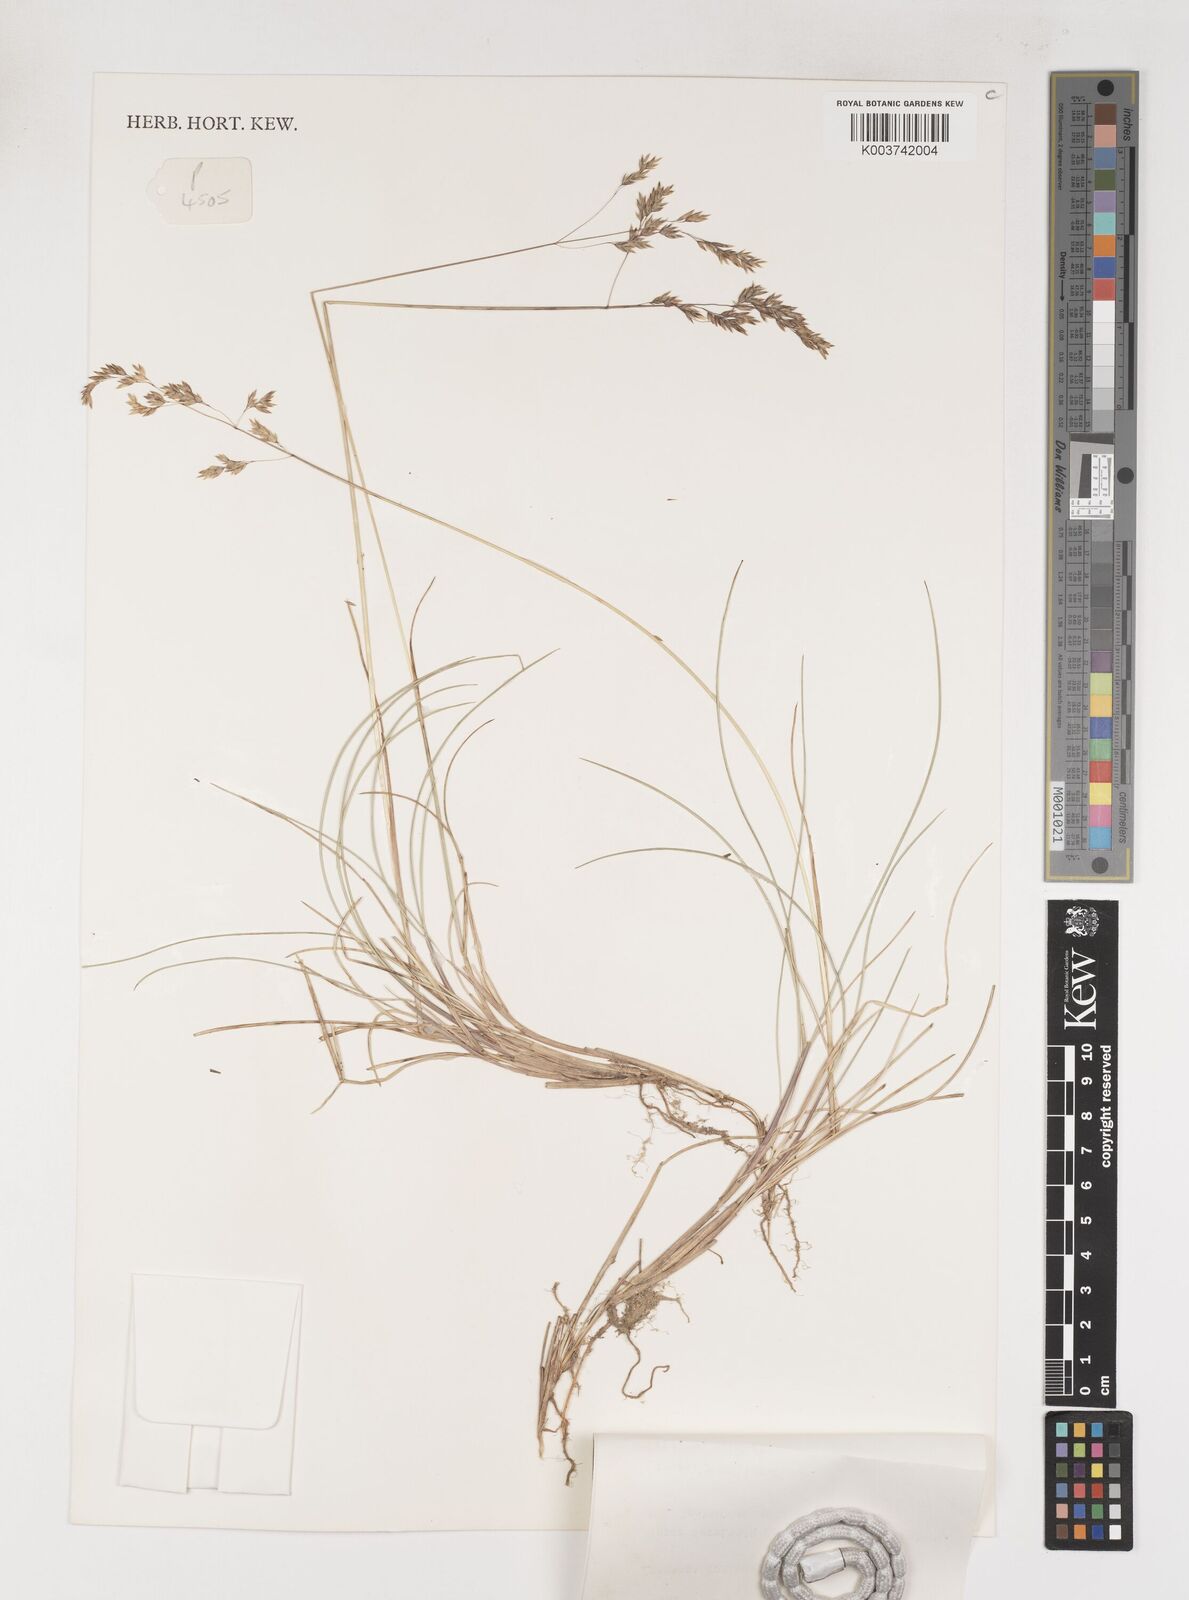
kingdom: Plantae
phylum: Tracheophyta
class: Liliopsida
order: Poales
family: Poaceae
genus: Poa
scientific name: Poa costiniana
